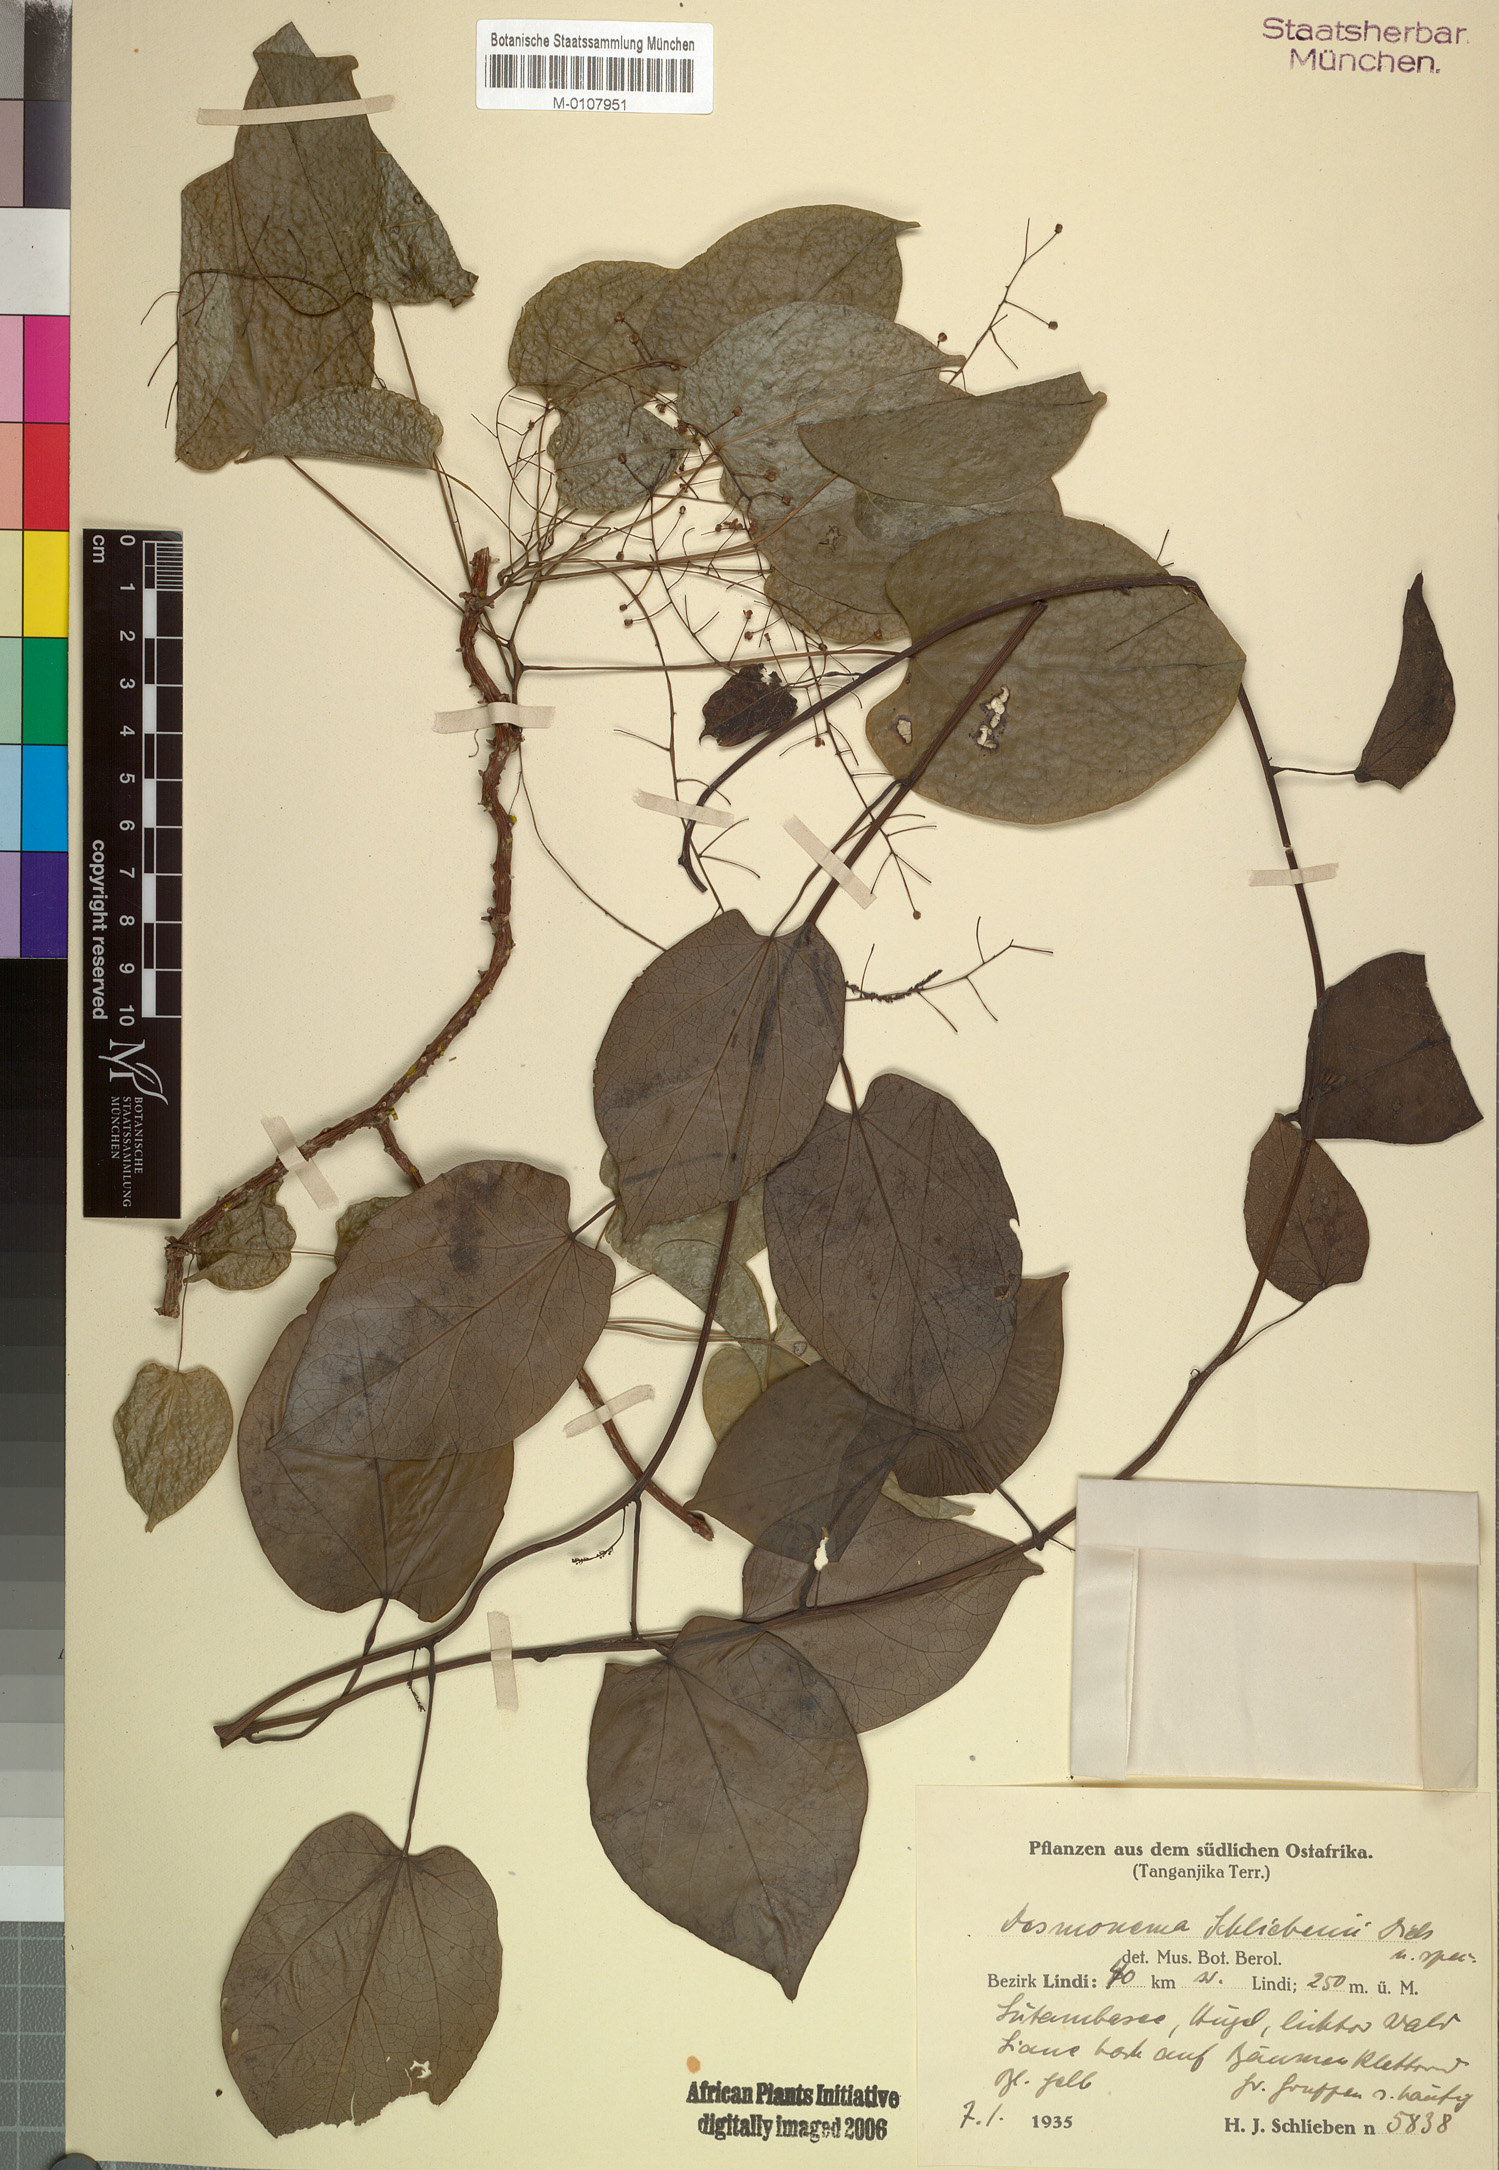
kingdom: Plantae
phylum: Tracheophyta
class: Magnoliopsida
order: Ranunculales
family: Menispermaceae
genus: Tinospora
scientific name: Tinospora caffra
